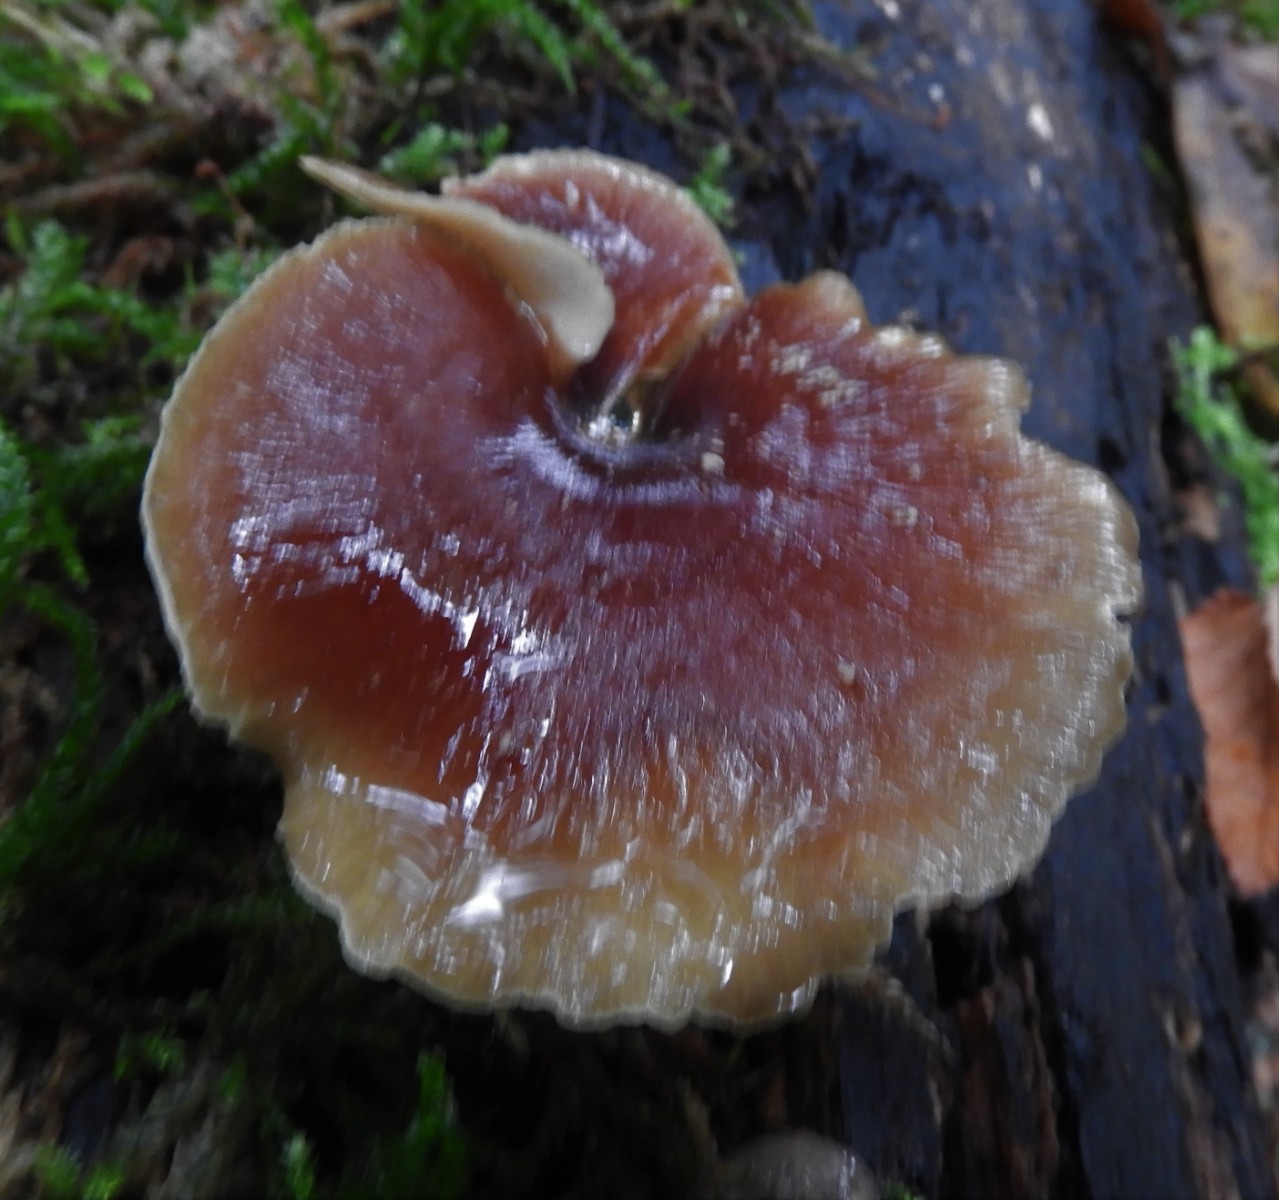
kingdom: Fungi
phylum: Basidiomycota
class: Agaricomycetes
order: Polyporales
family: Polyporaceae
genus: Picipes
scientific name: Picipes badius
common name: kastaniebrun stilkporesvamp
